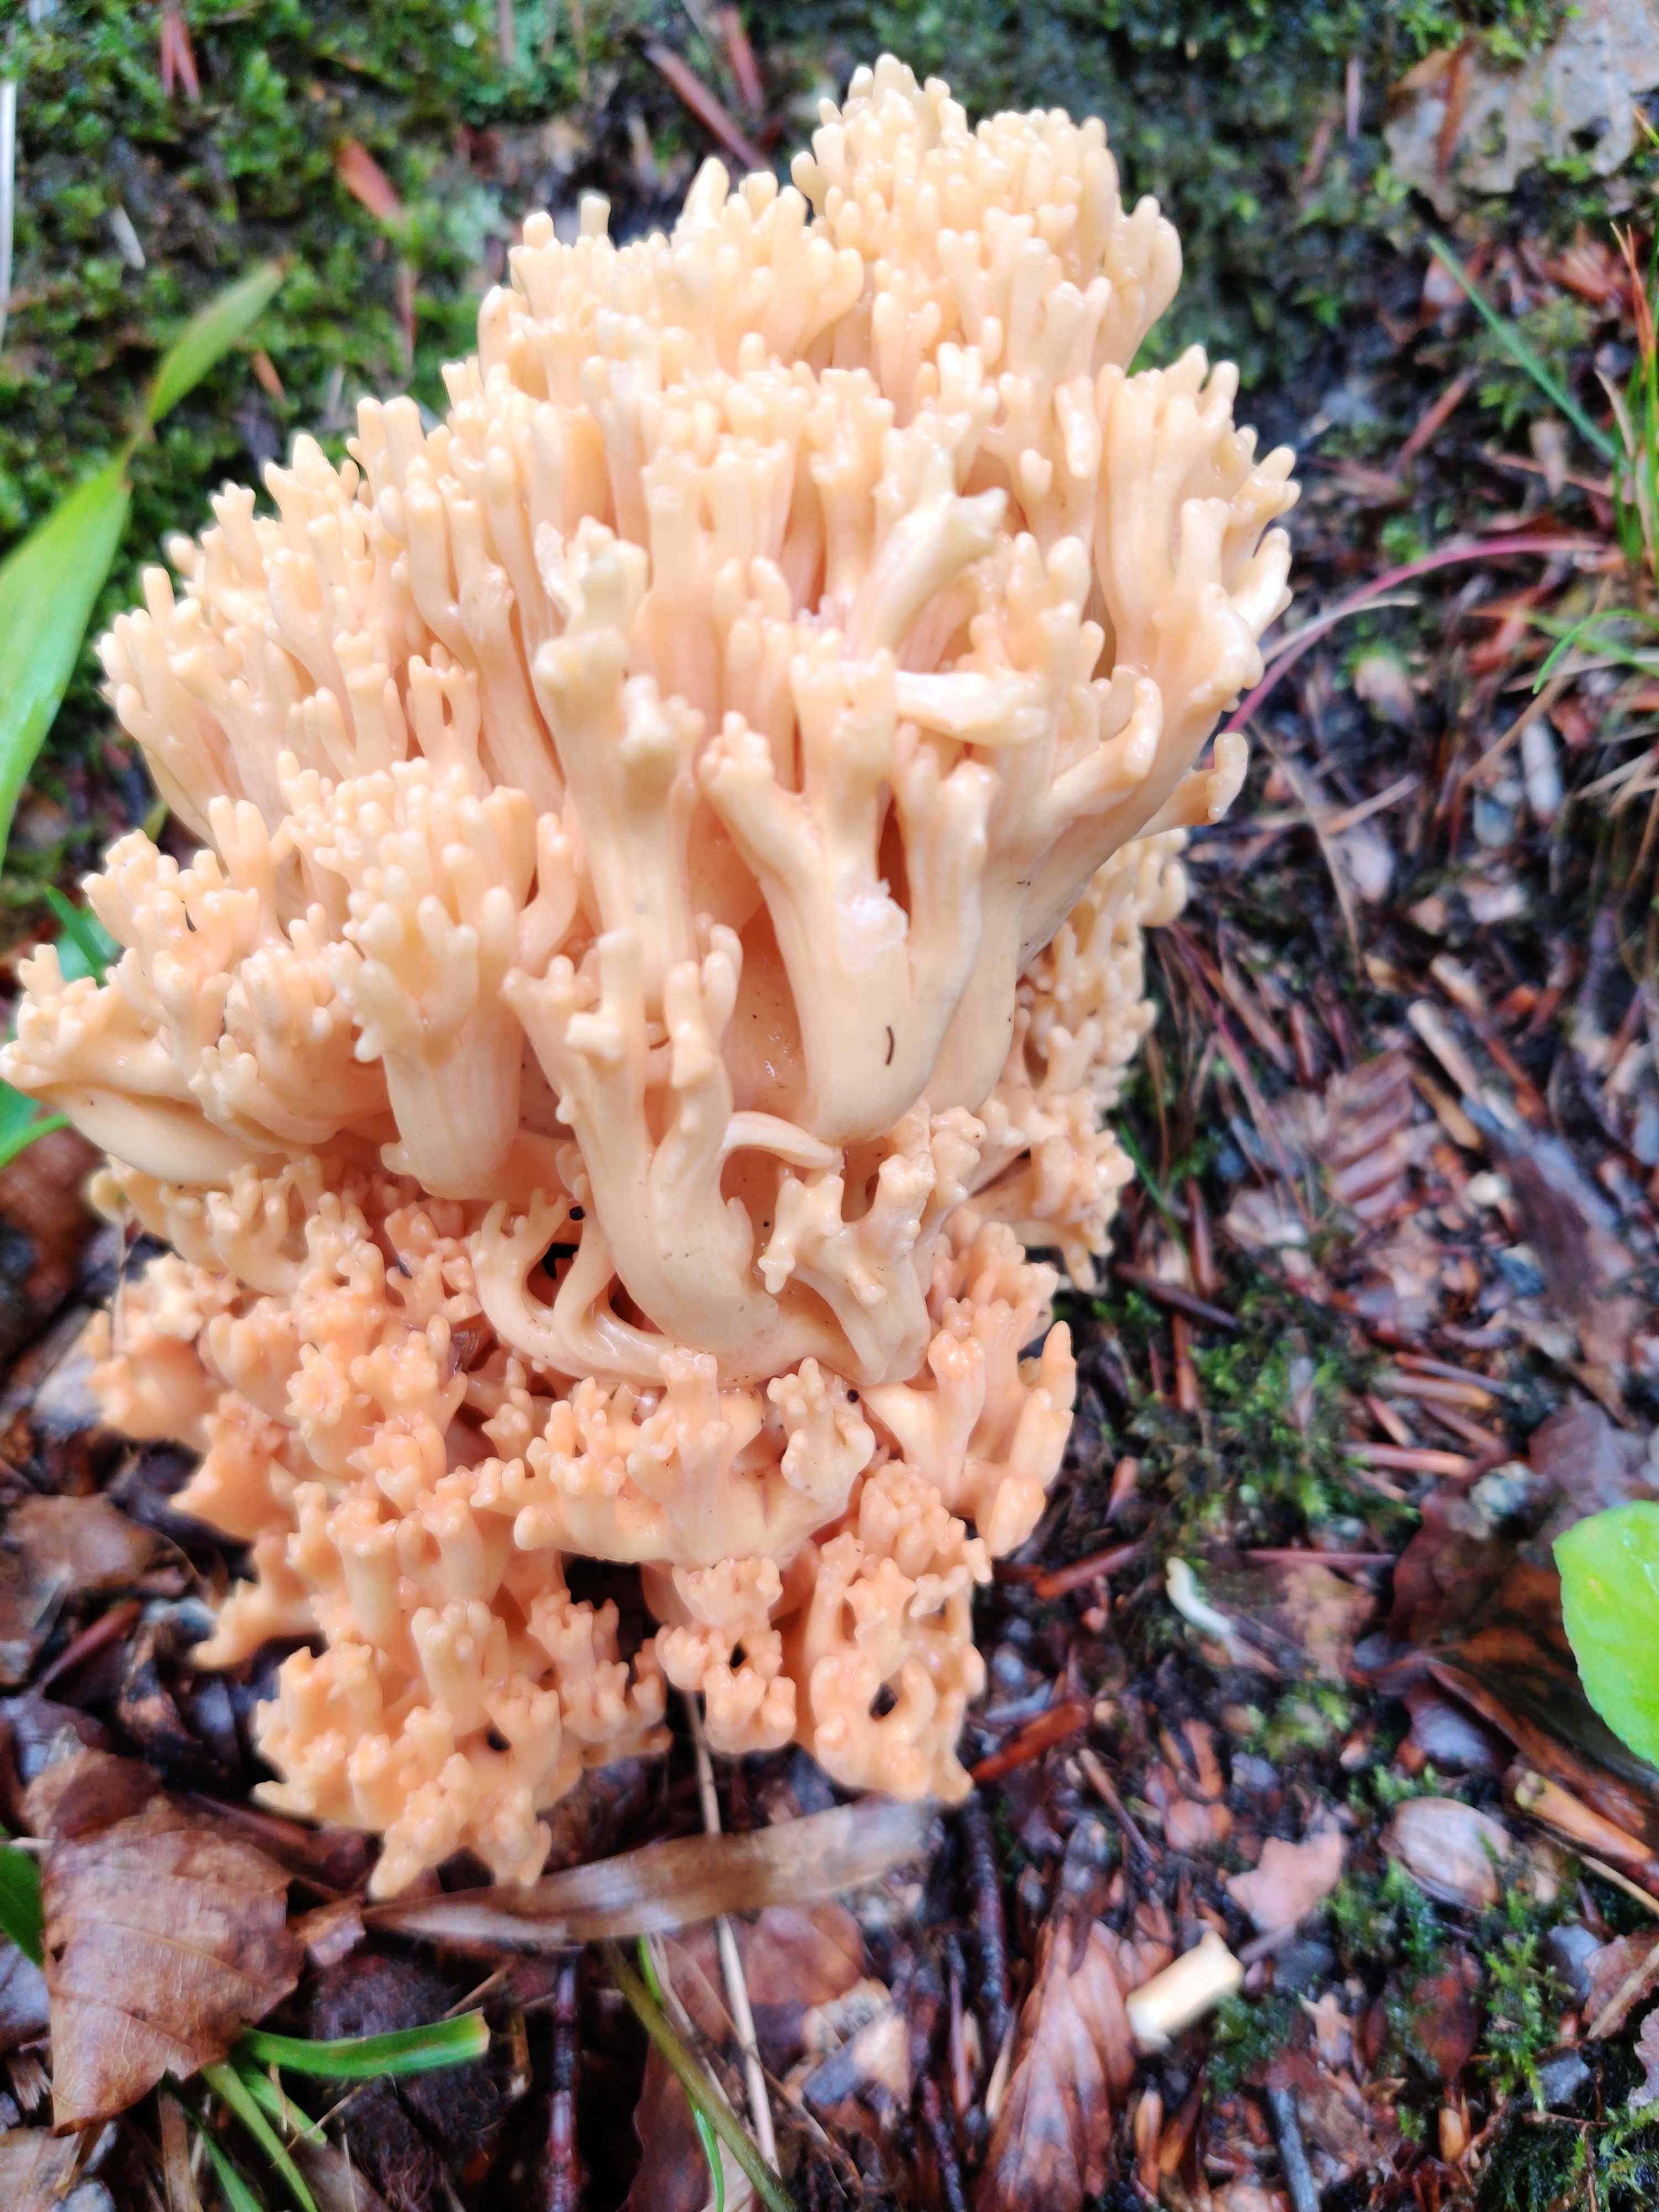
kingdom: Fungi
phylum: Basidiomycota
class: Agaricomycetes
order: Gomphales
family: Gomphaceae
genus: Ramaria
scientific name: Ramaria
